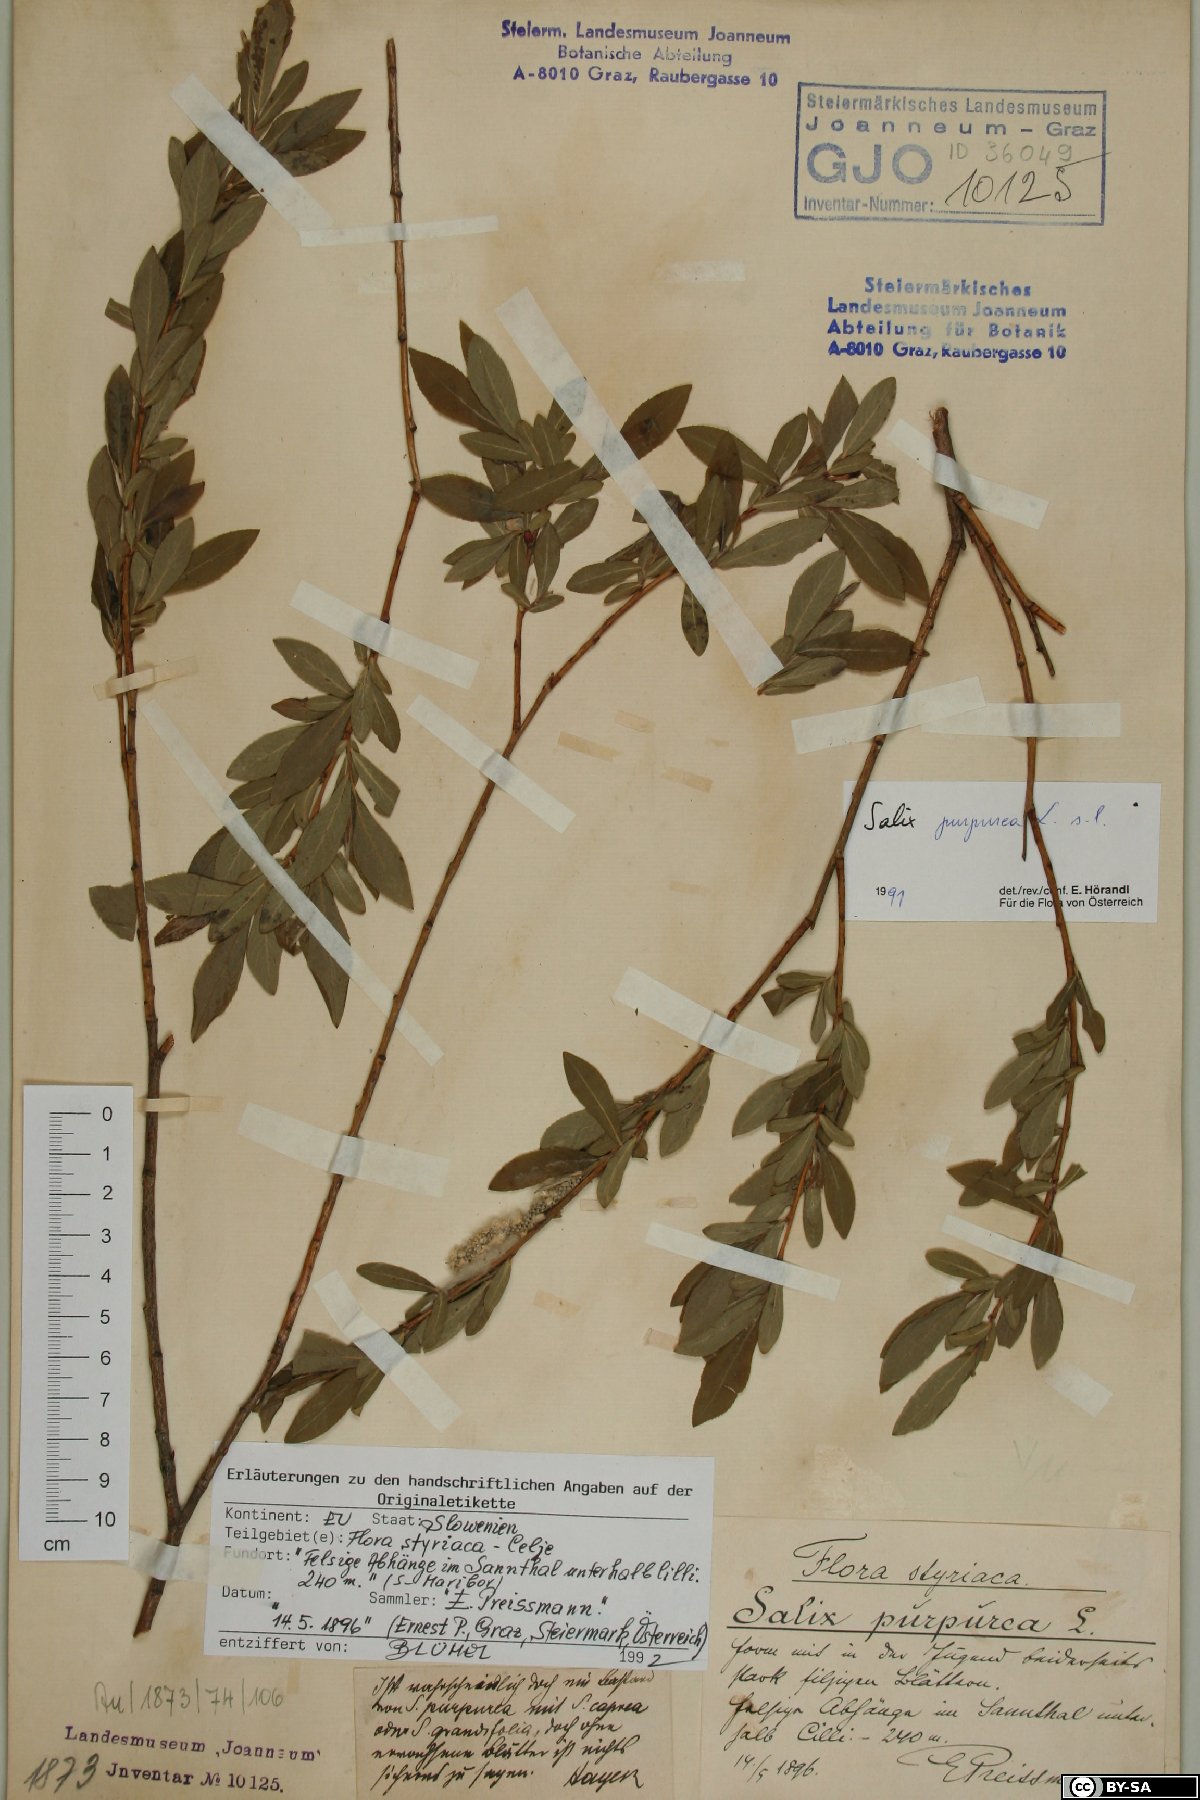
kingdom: Plantae
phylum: Tracheophyta
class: Magnoliopsida
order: Malpighiales
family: Salicaceae
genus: Salix
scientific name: Salix purpurea
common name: Purple willow
